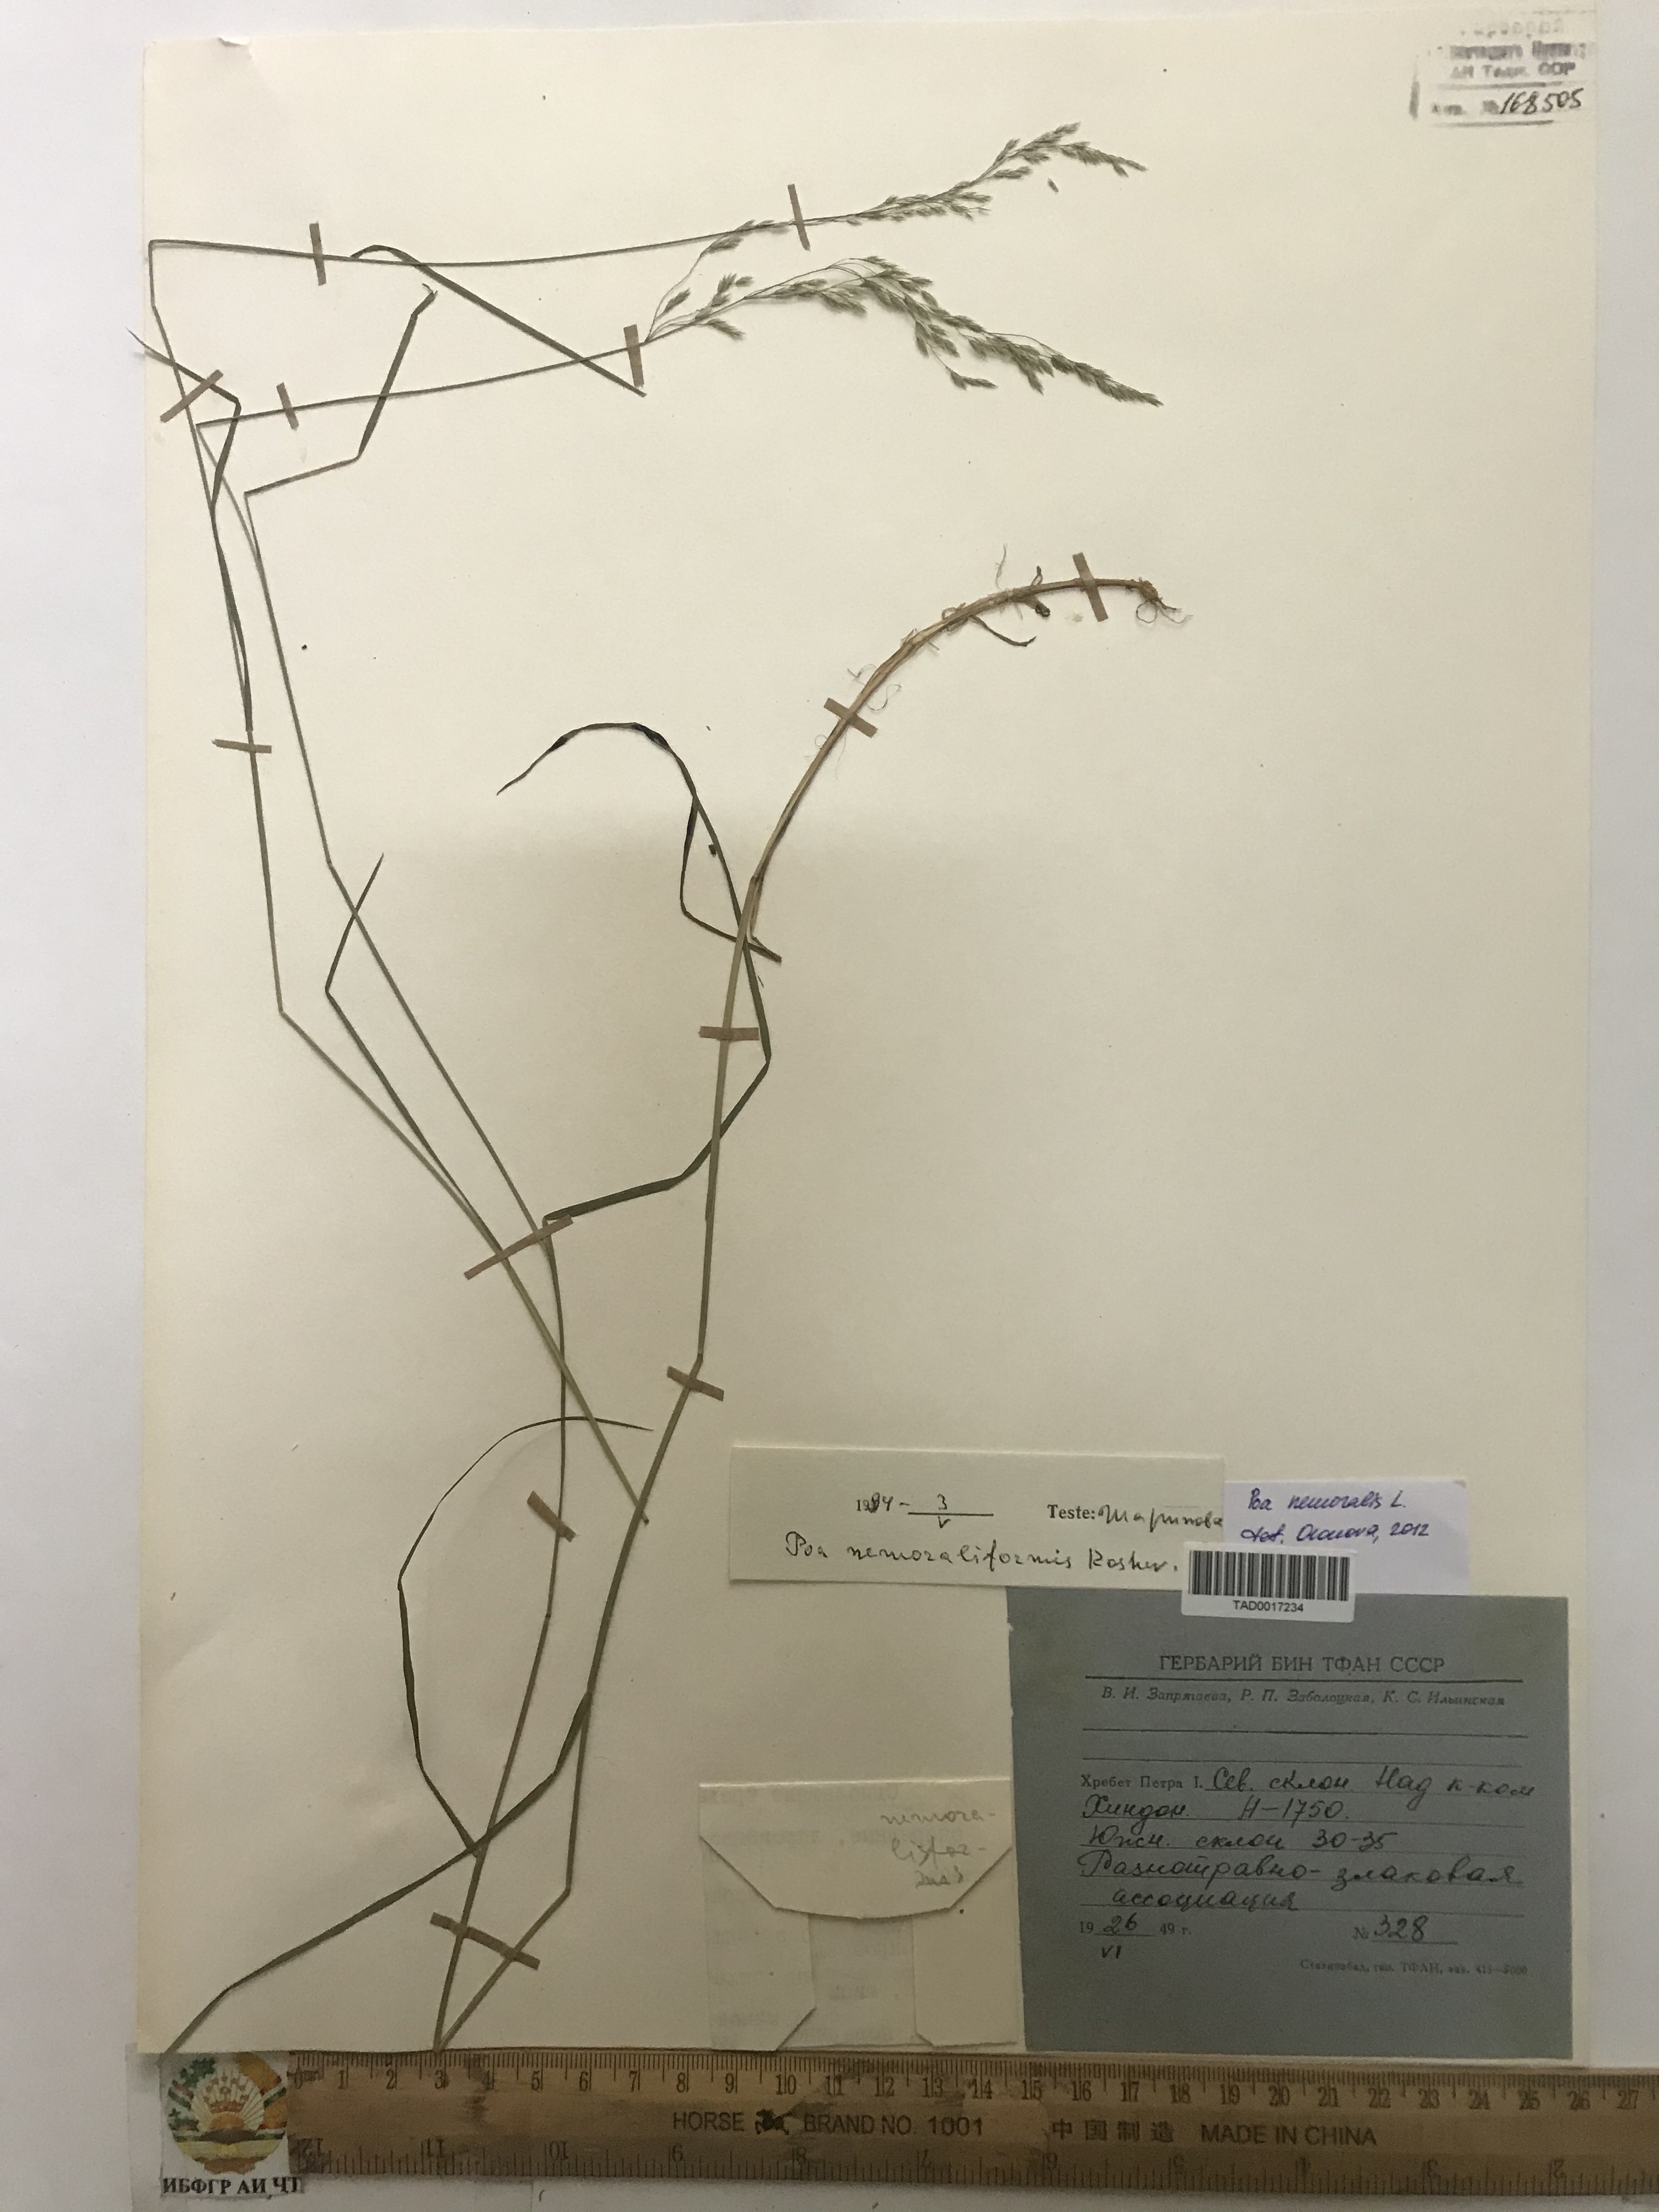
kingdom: Plantae
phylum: Tracheophyta
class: Liliopsida
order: Poales
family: Poaceae
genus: Poa
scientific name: Poa nemoralis
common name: Wood bluegrass
